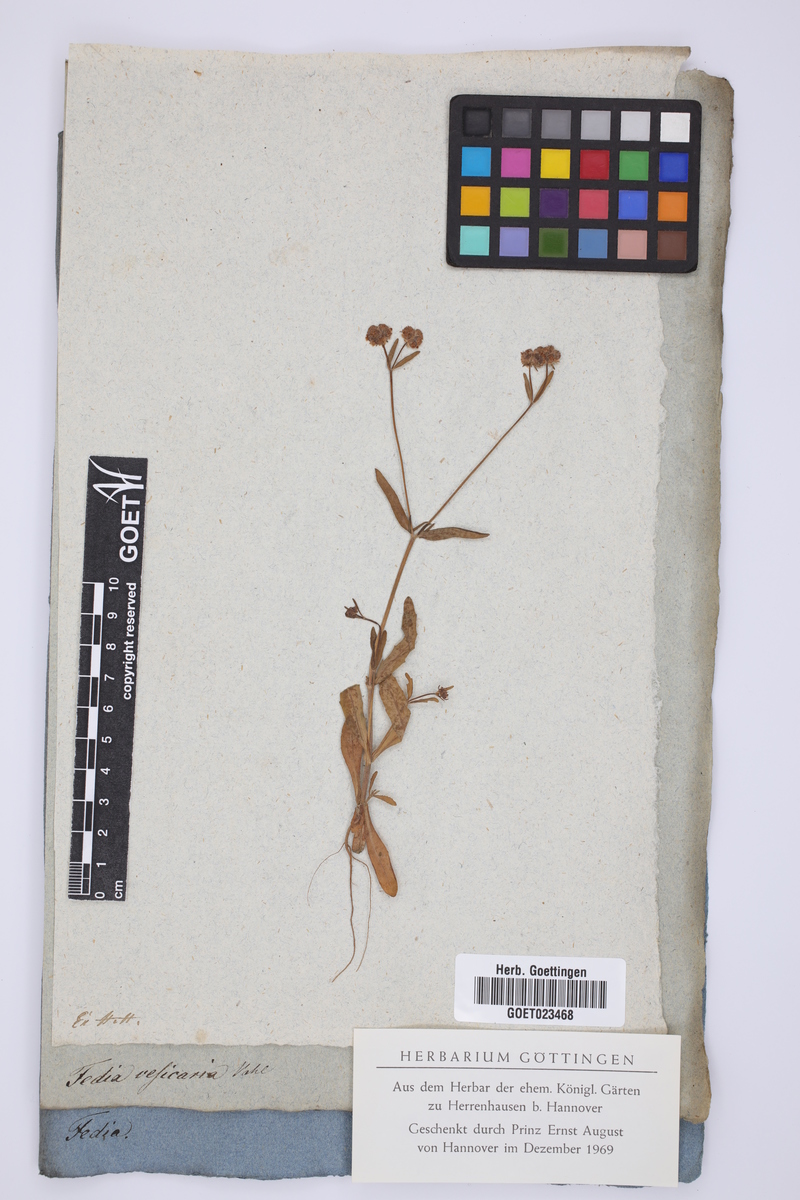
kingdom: Plantae
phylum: Tracheophyta
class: Magnoliopsida
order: Dipsacales
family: Caprifoliaceae
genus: Valerianella
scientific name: Valerianella vesicaria
